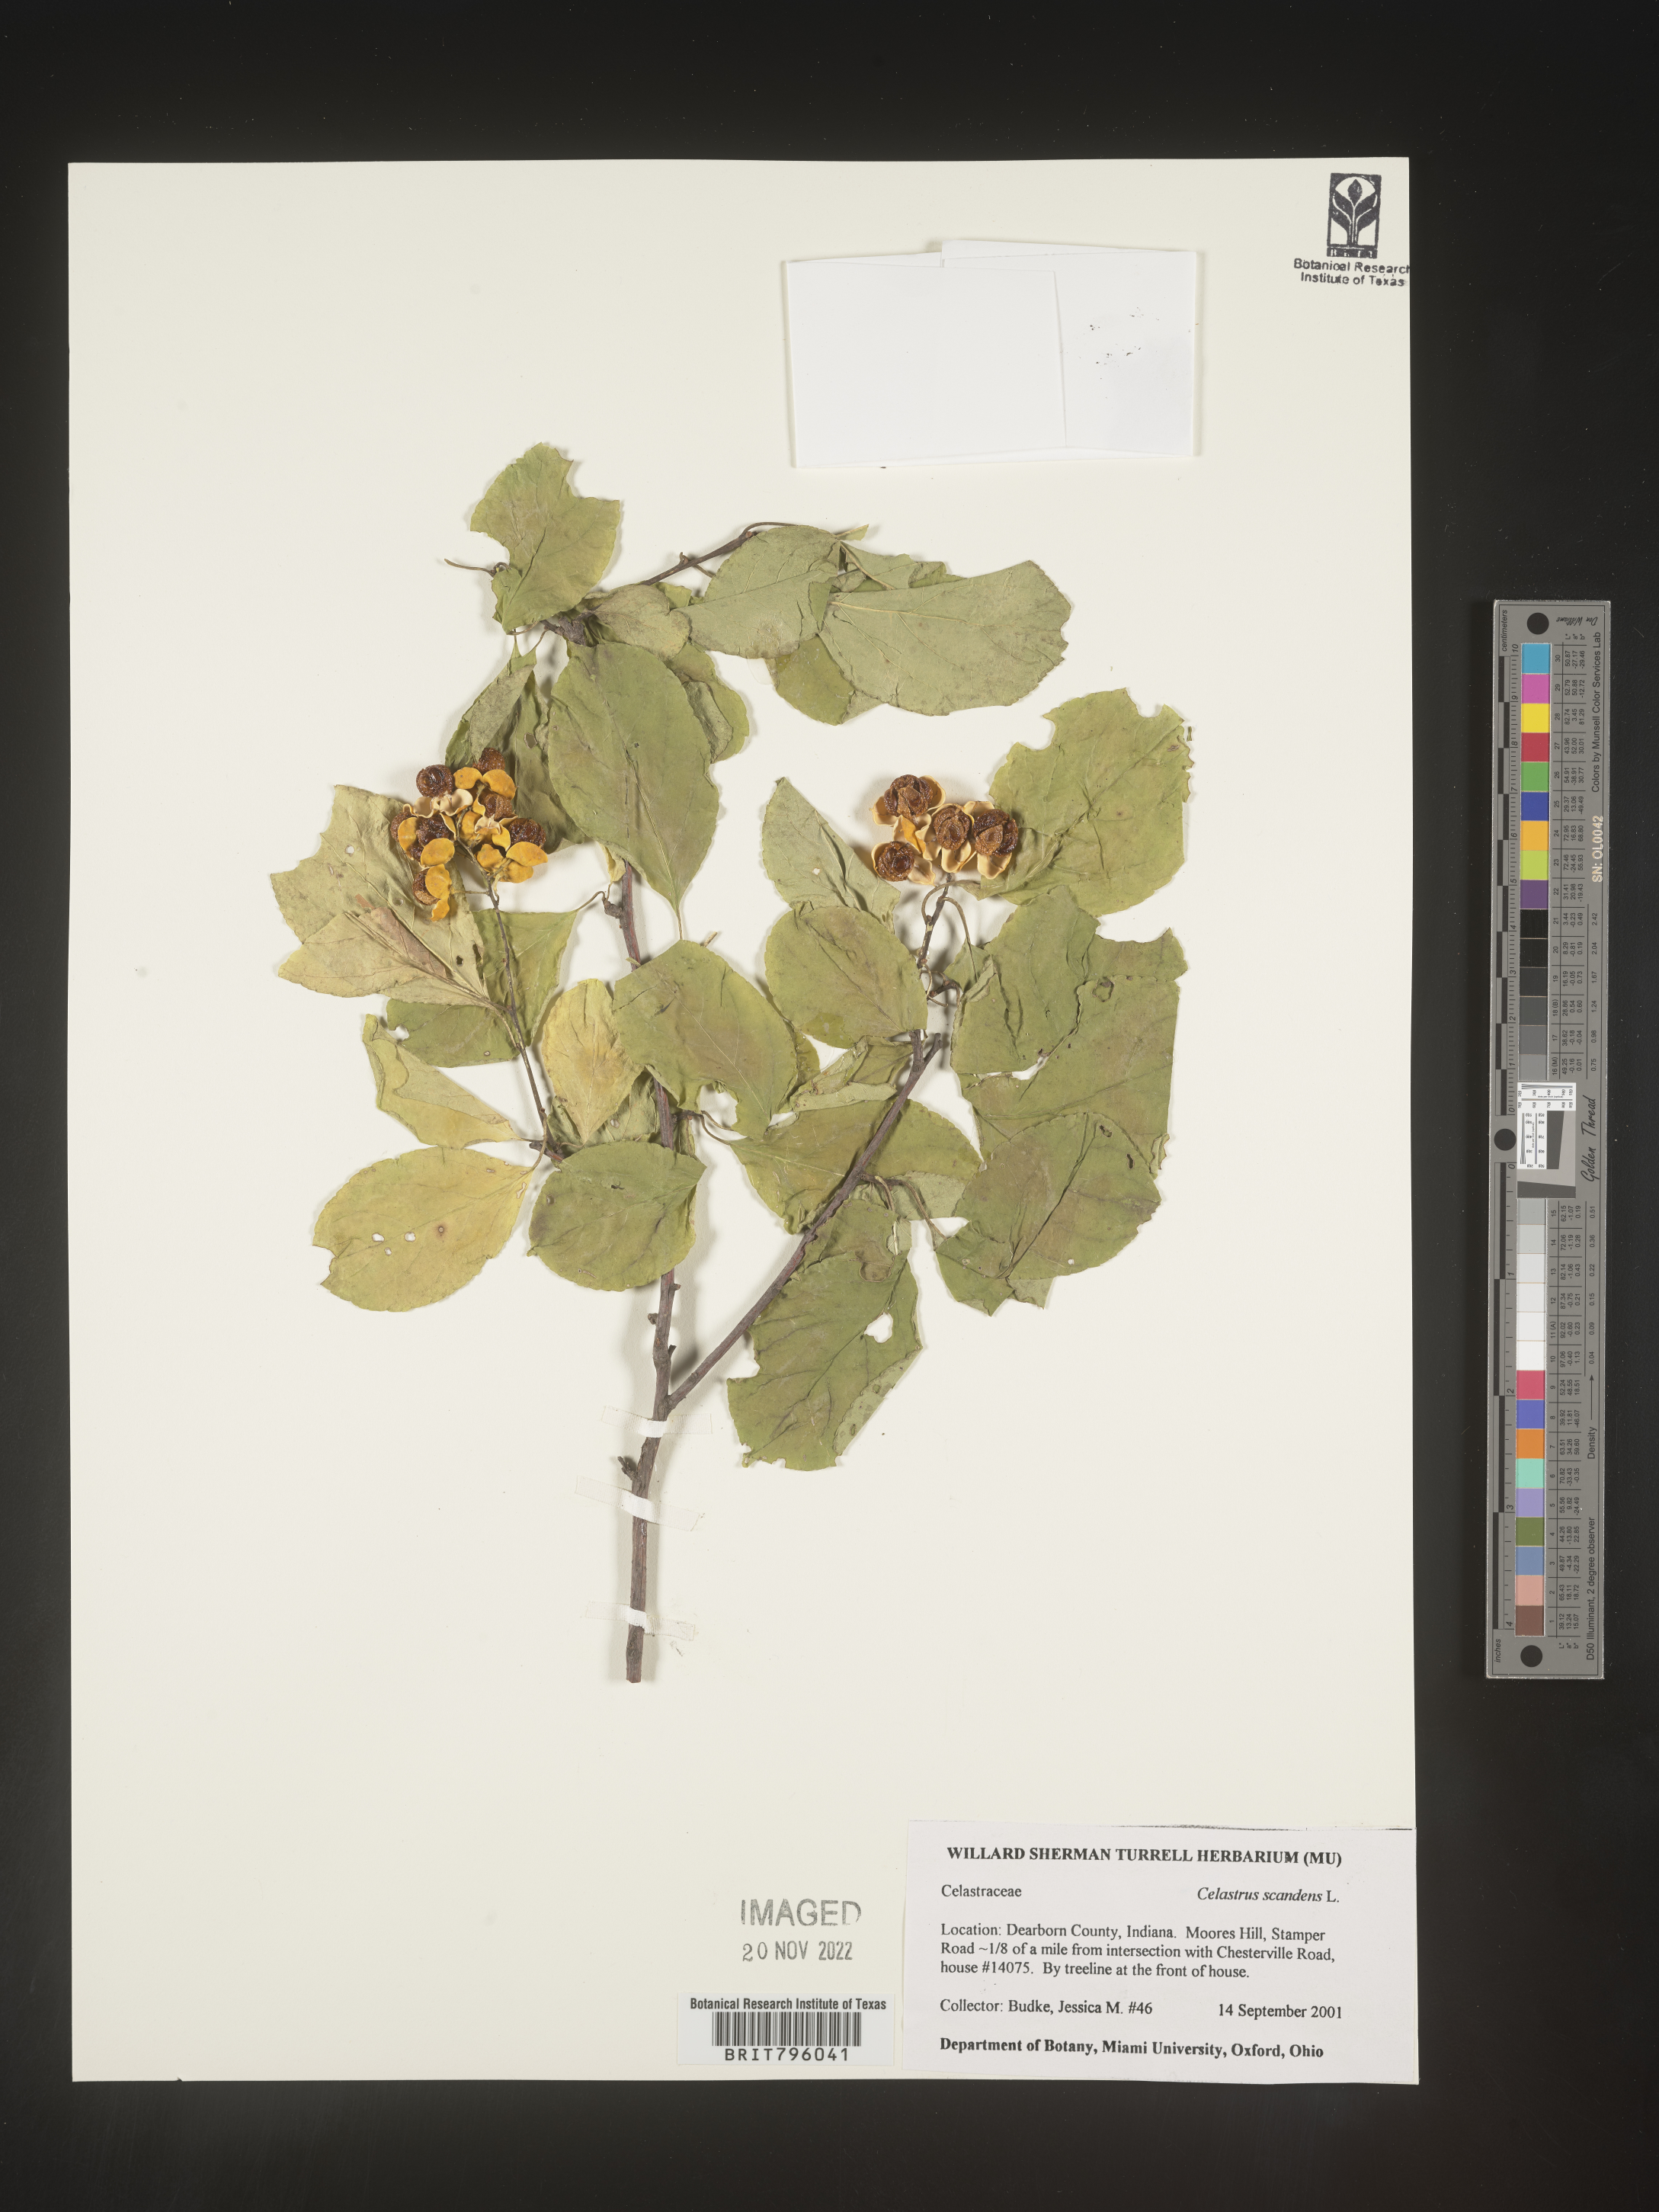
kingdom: Plantae
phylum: Tracheophyta
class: Magnoliopsida
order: Celastrales
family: Celastraceae
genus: Celastrus
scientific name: Celastrus scandens
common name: American bittersweet
